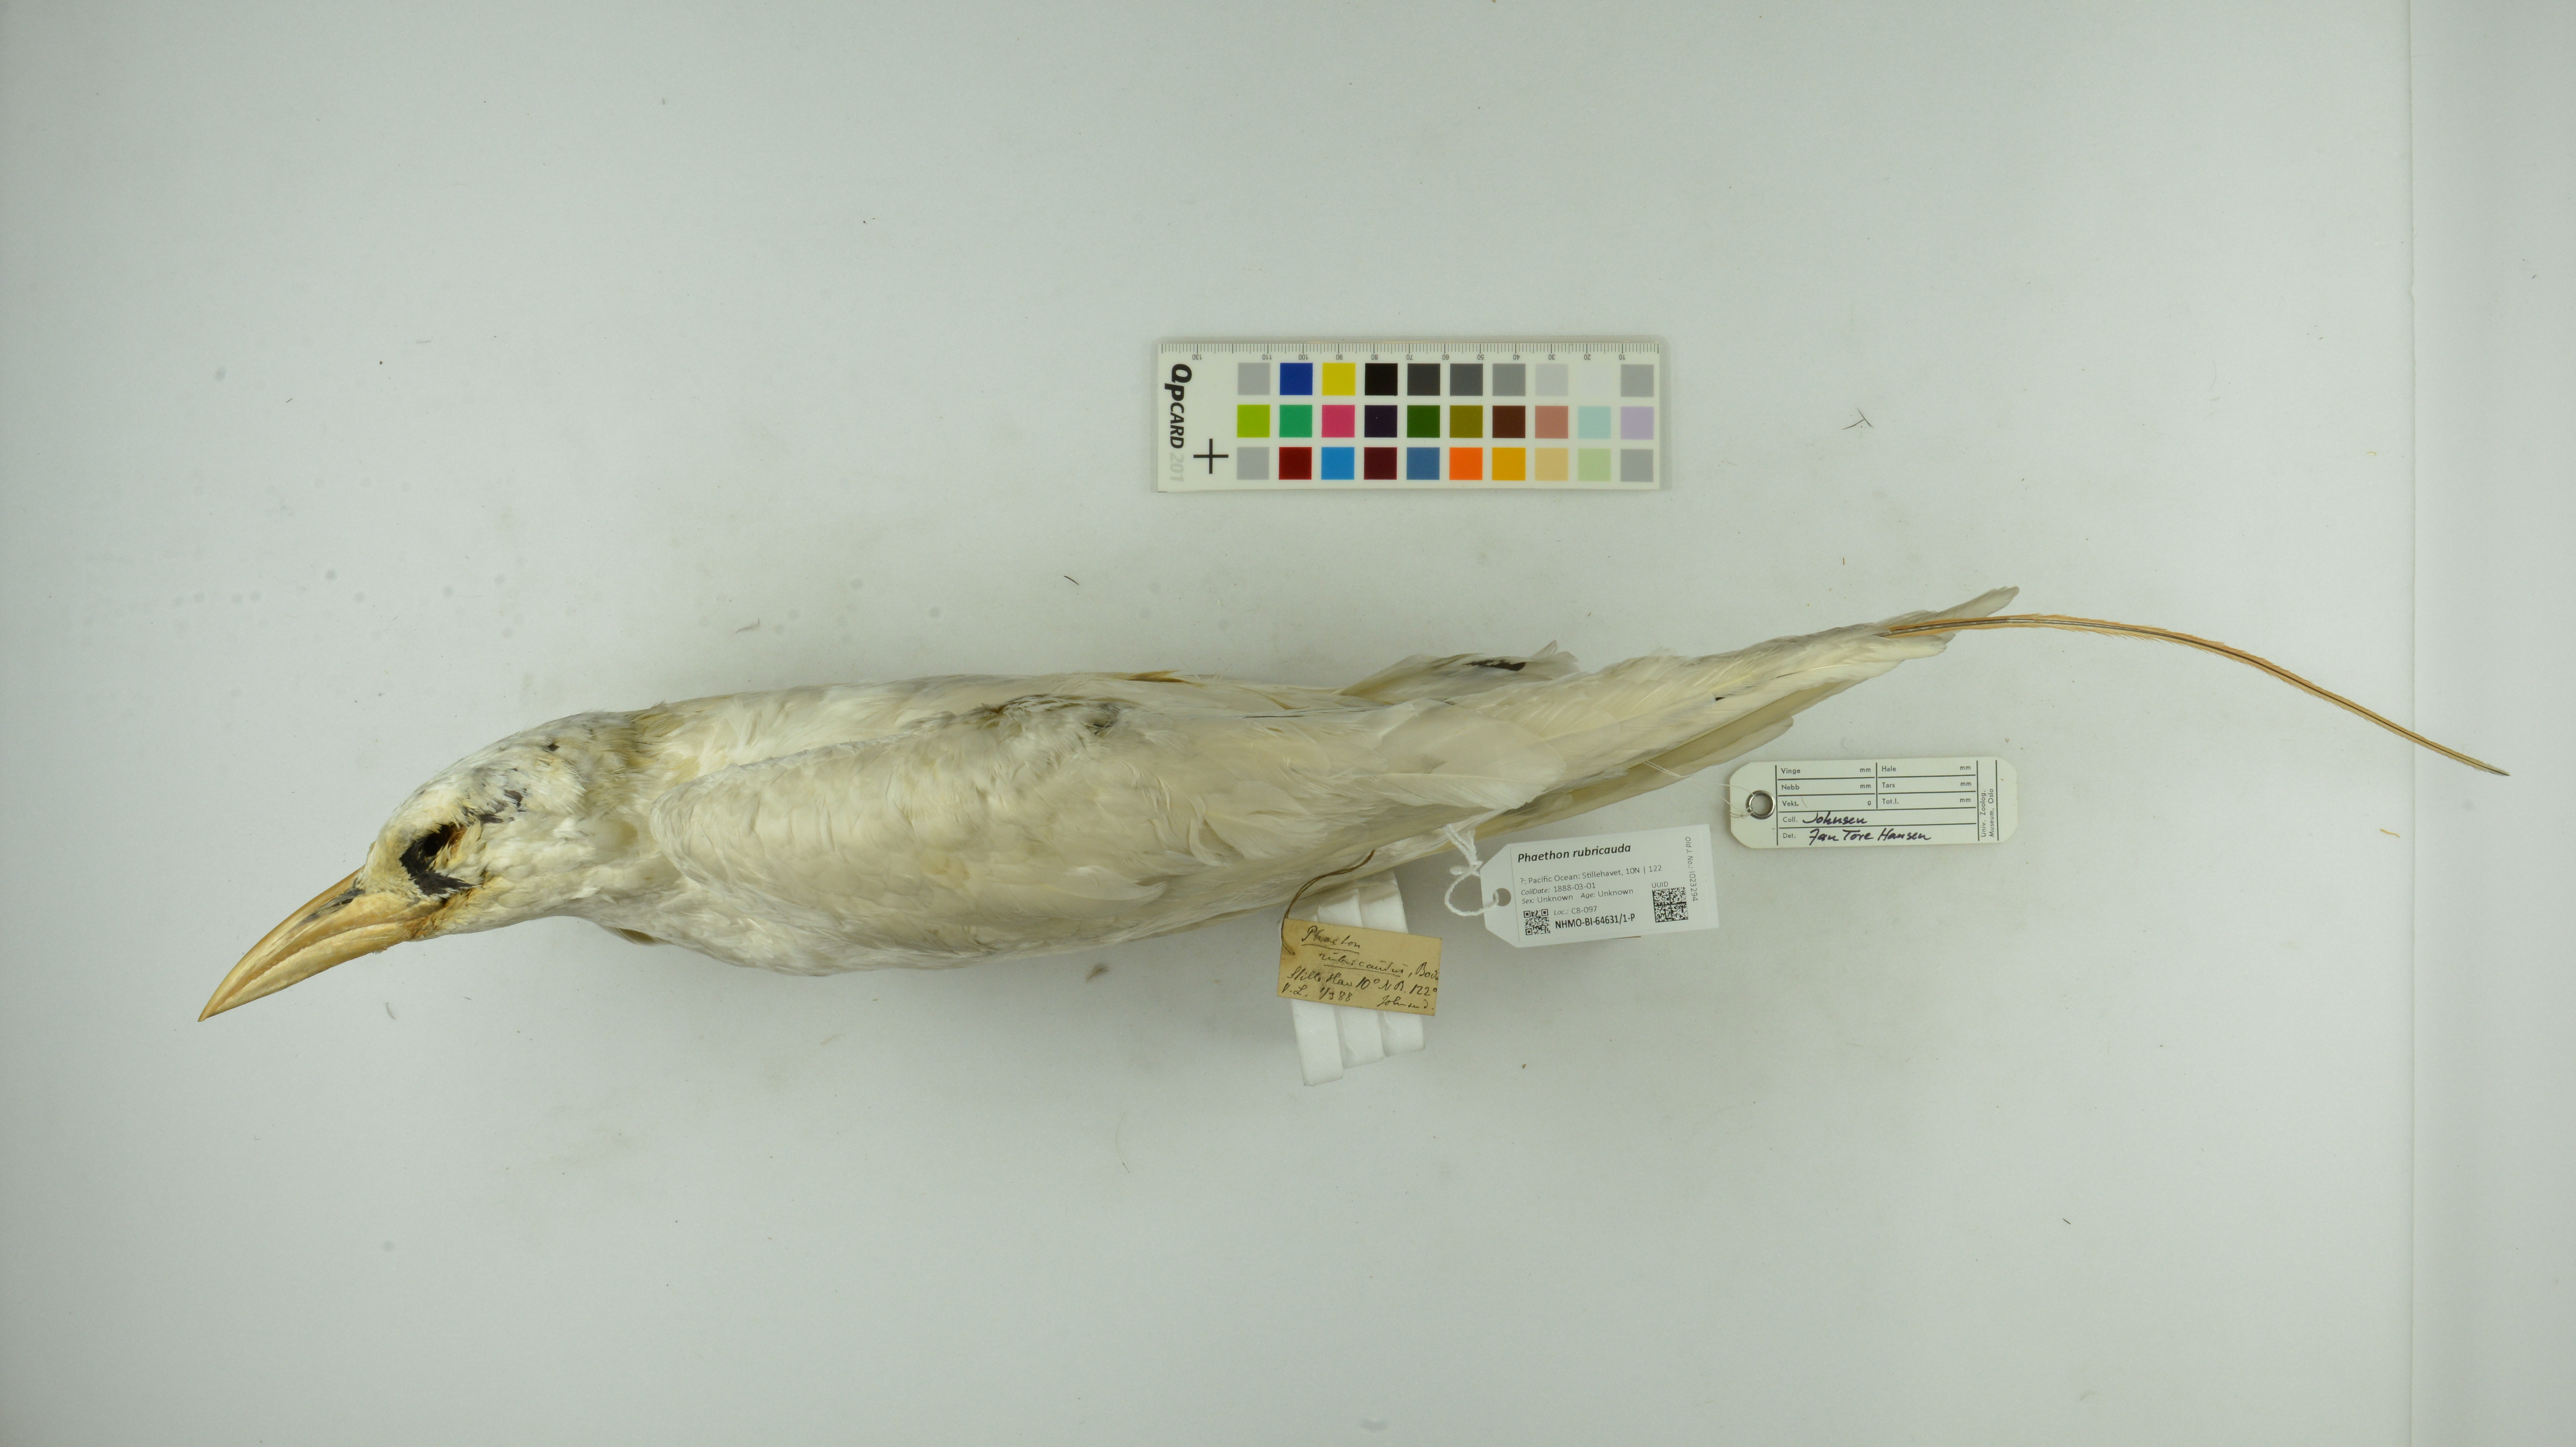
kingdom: Animalia
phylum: Chordata
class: Aves
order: Phaethontiformes
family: Phaethontidae
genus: Phaethon
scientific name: Phaethon rubricauda
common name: Red-tailed tropicbird
